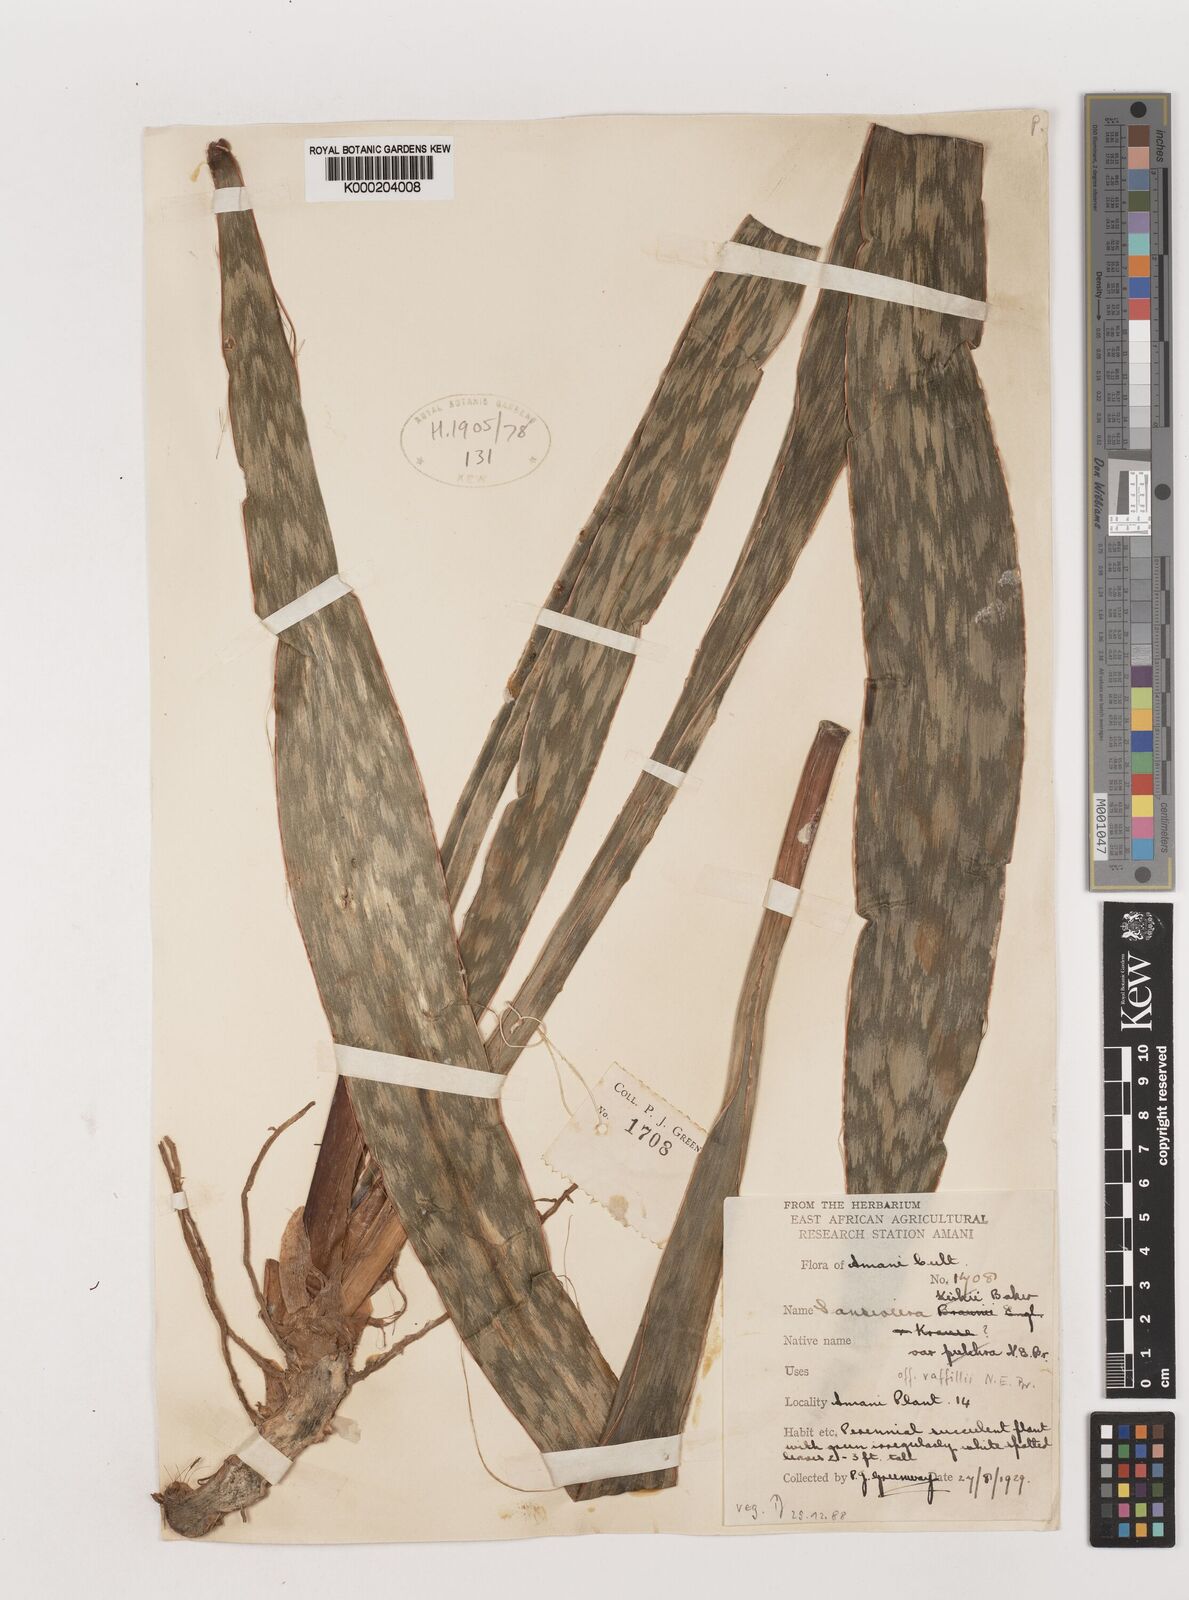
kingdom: Plantae
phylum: Tracheophyta
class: Liliopsida
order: Asparagales
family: Asparagaceae
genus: Dracaena
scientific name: Dracaena
